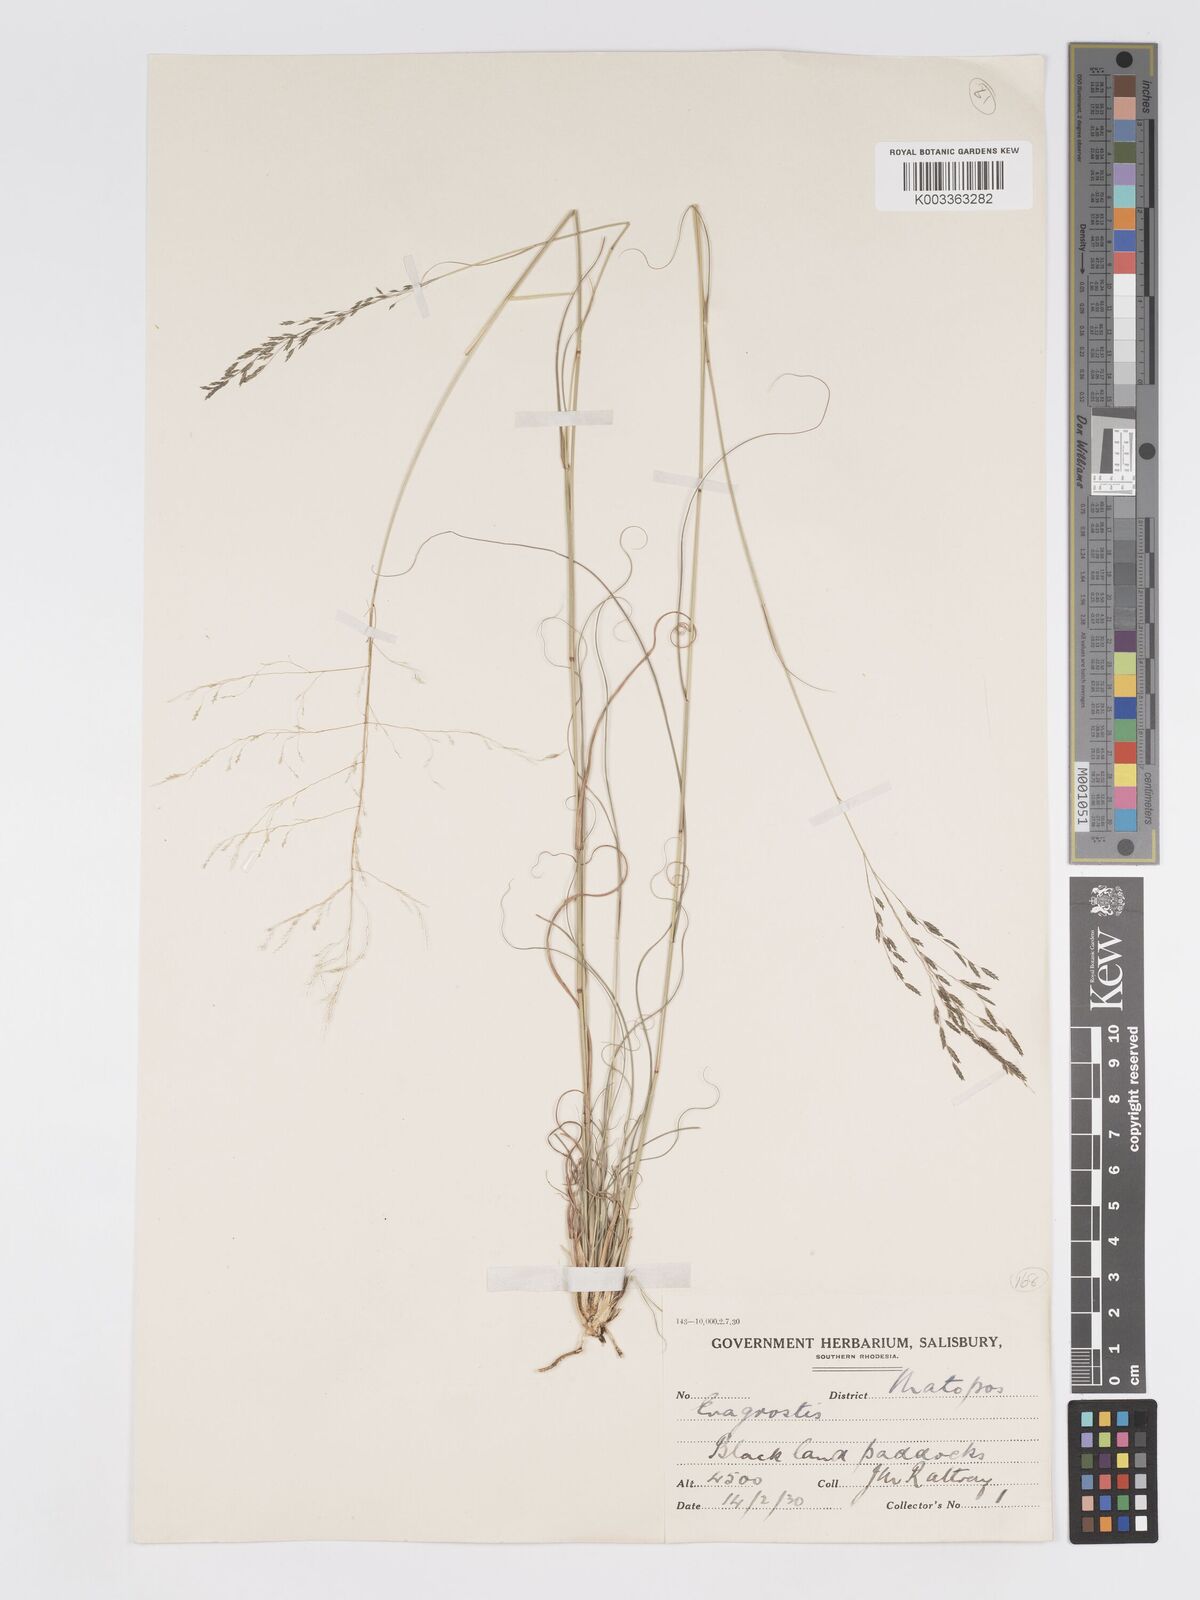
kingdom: Plantae
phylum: Tracheophyta
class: Liliopsida
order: Poales
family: Poaceae
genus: Eragrostis
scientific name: Eragrostis curvula
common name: African love-grass
